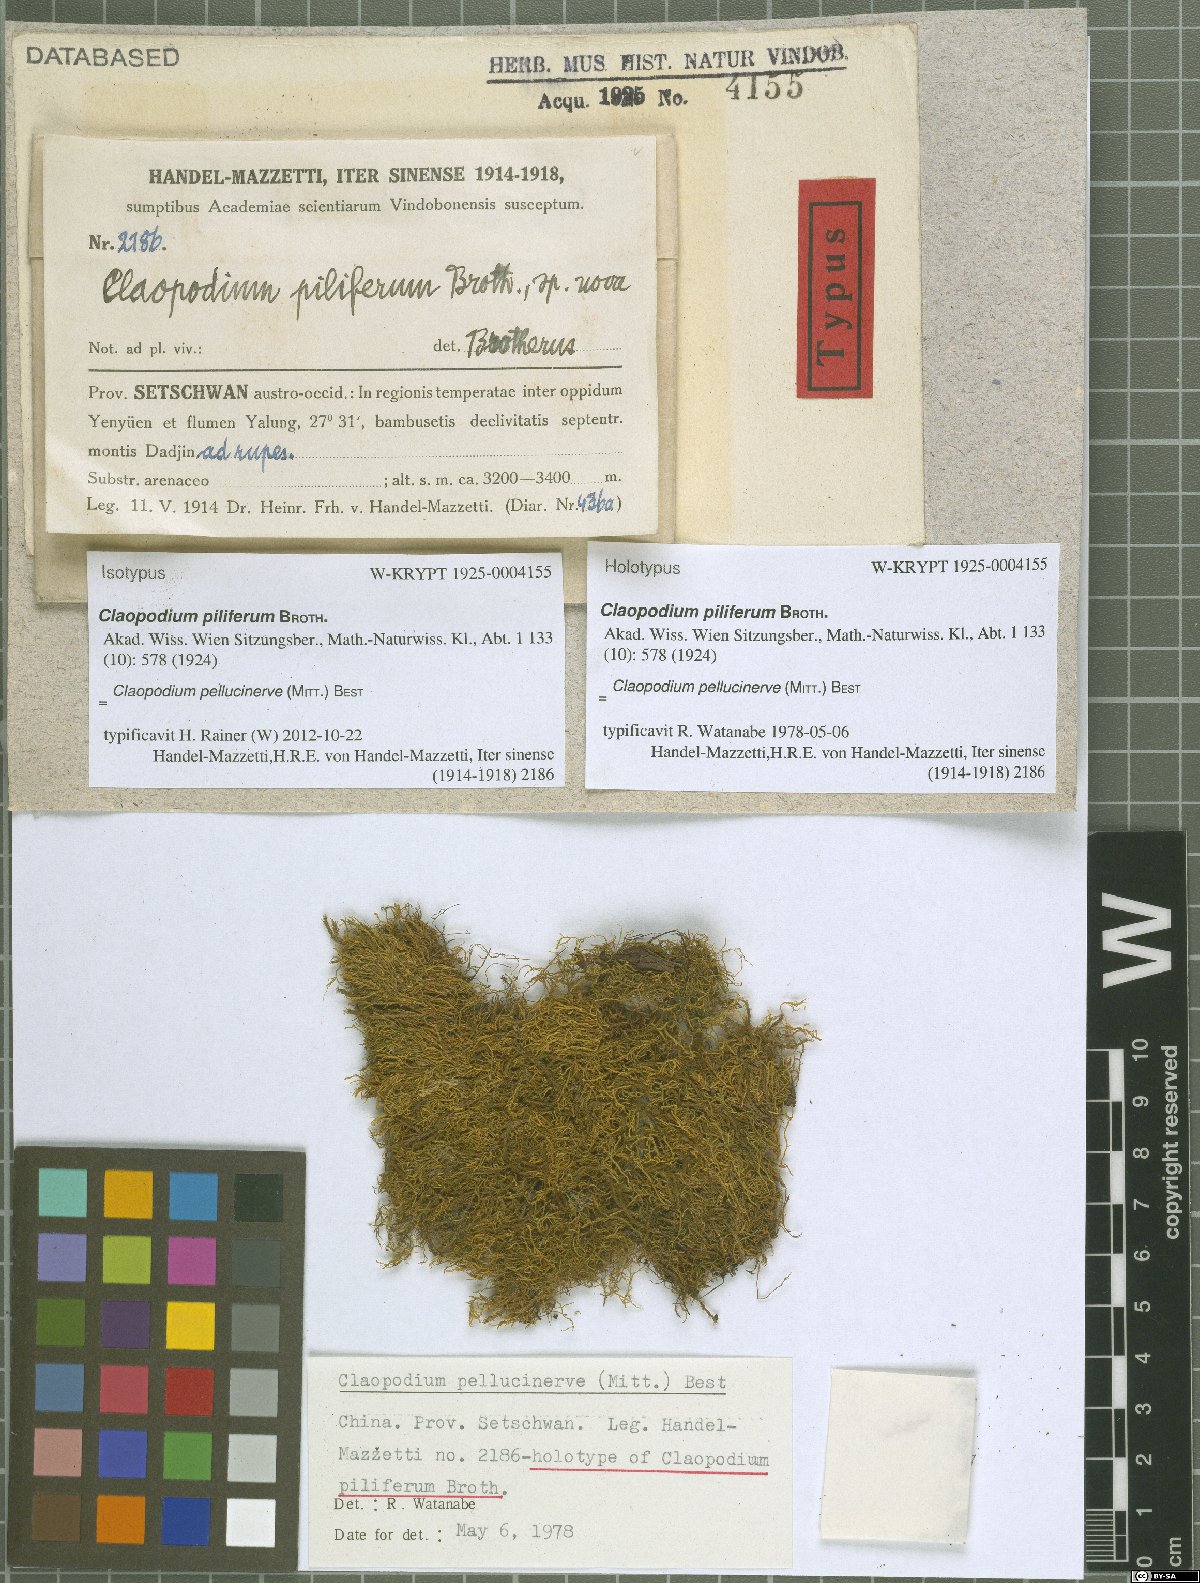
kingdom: Plantae
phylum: Bryophyta
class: Bryopsida
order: Hypnales
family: Brachytheciaceae
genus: Claopodium
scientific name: Claopodium pellucinerve
